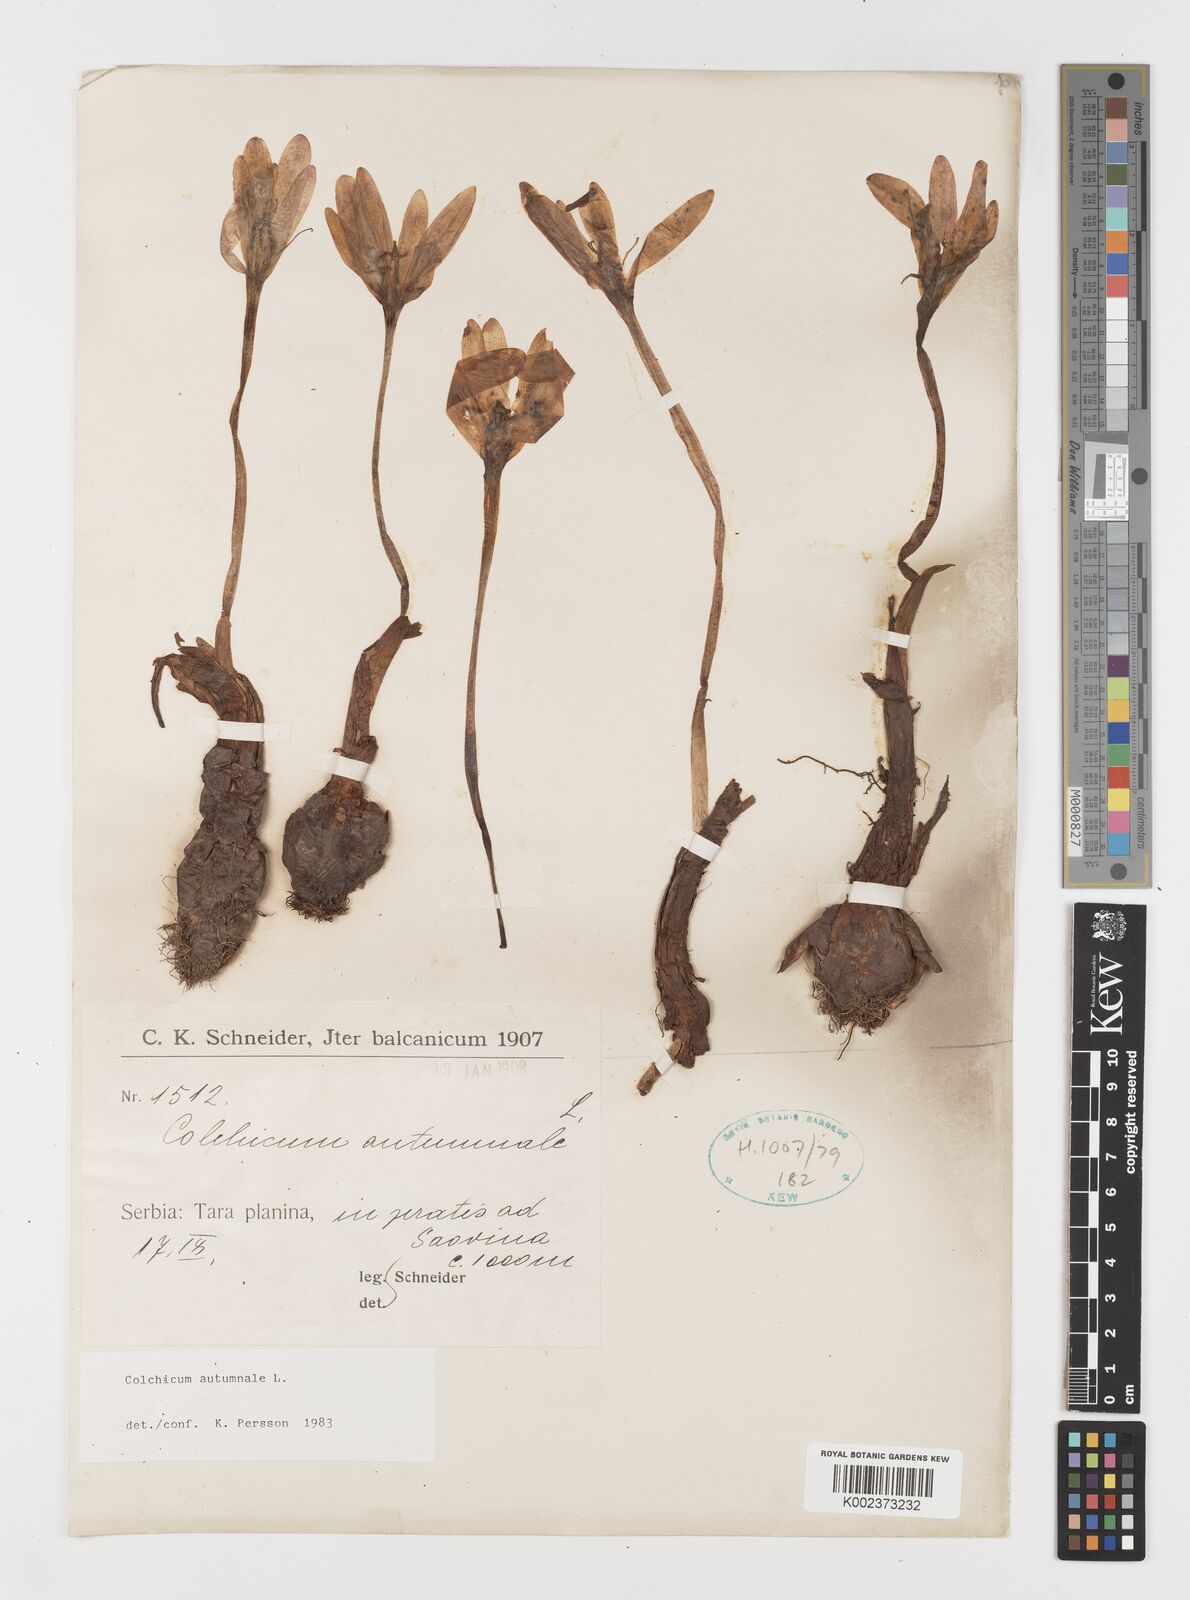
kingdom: Plantae
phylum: Tracheophyta
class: Liliopsida
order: Liliales
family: Colchicaceae
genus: Colchicum
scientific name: Colchicum autumnale
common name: Autumn crocus
